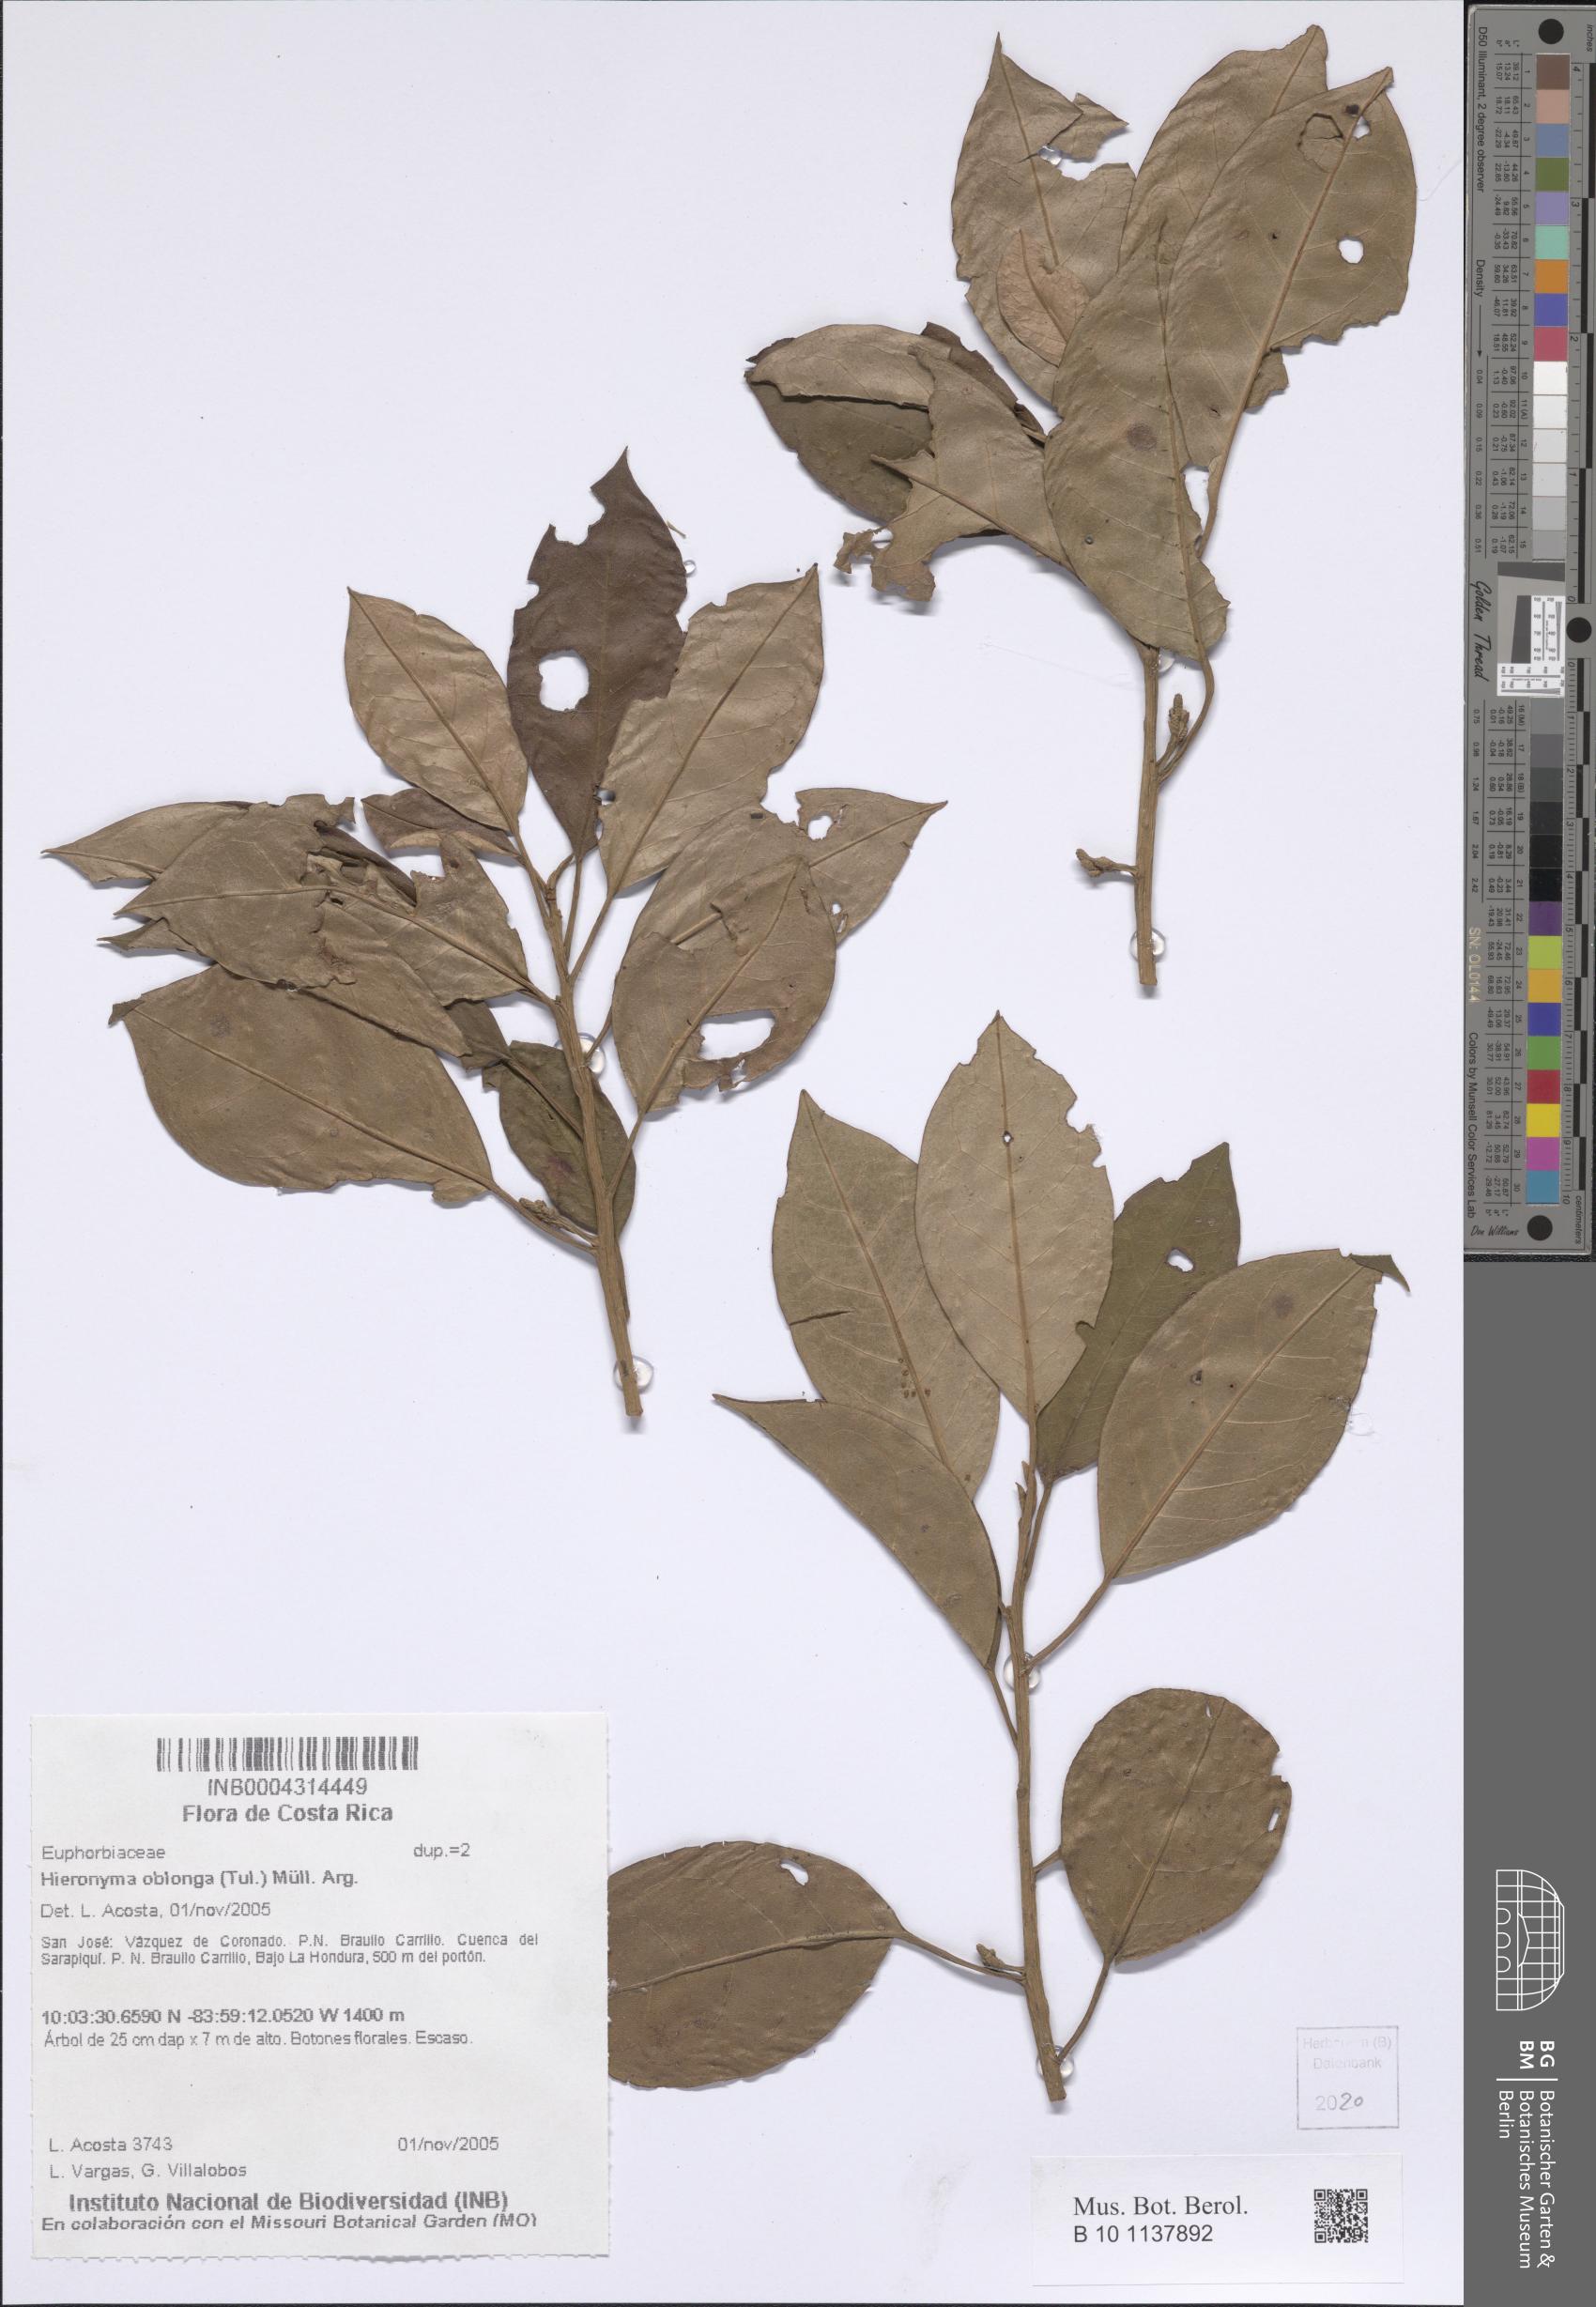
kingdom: Plantae
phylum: Tracheophyta
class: Magnoliopsida
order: Malpighiales
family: Phyllanthaceae
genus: Hieronyma
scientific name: Hieronyma oblonga
